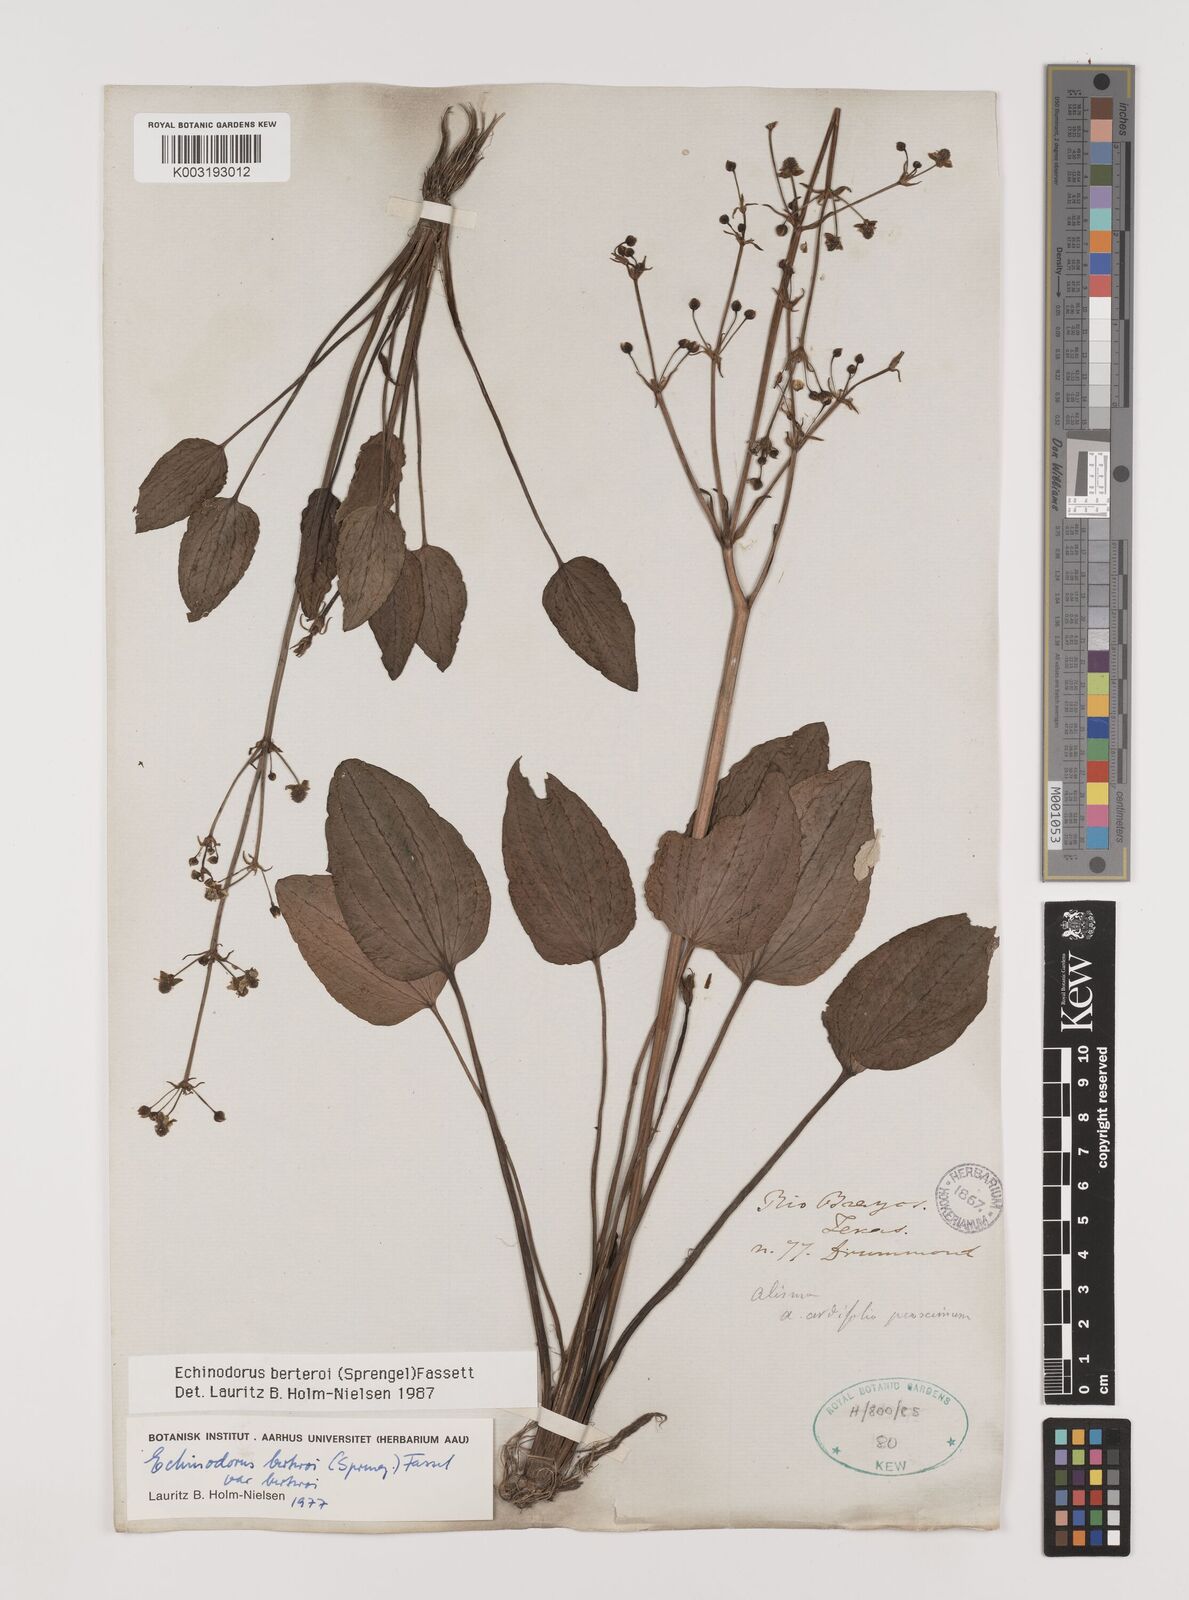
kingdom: Plantae
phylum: Tracheophyta
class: Liliopsida
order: Alismatales
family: Alismataceae
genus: Echinodorus
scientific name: Echinodorus berteroi
